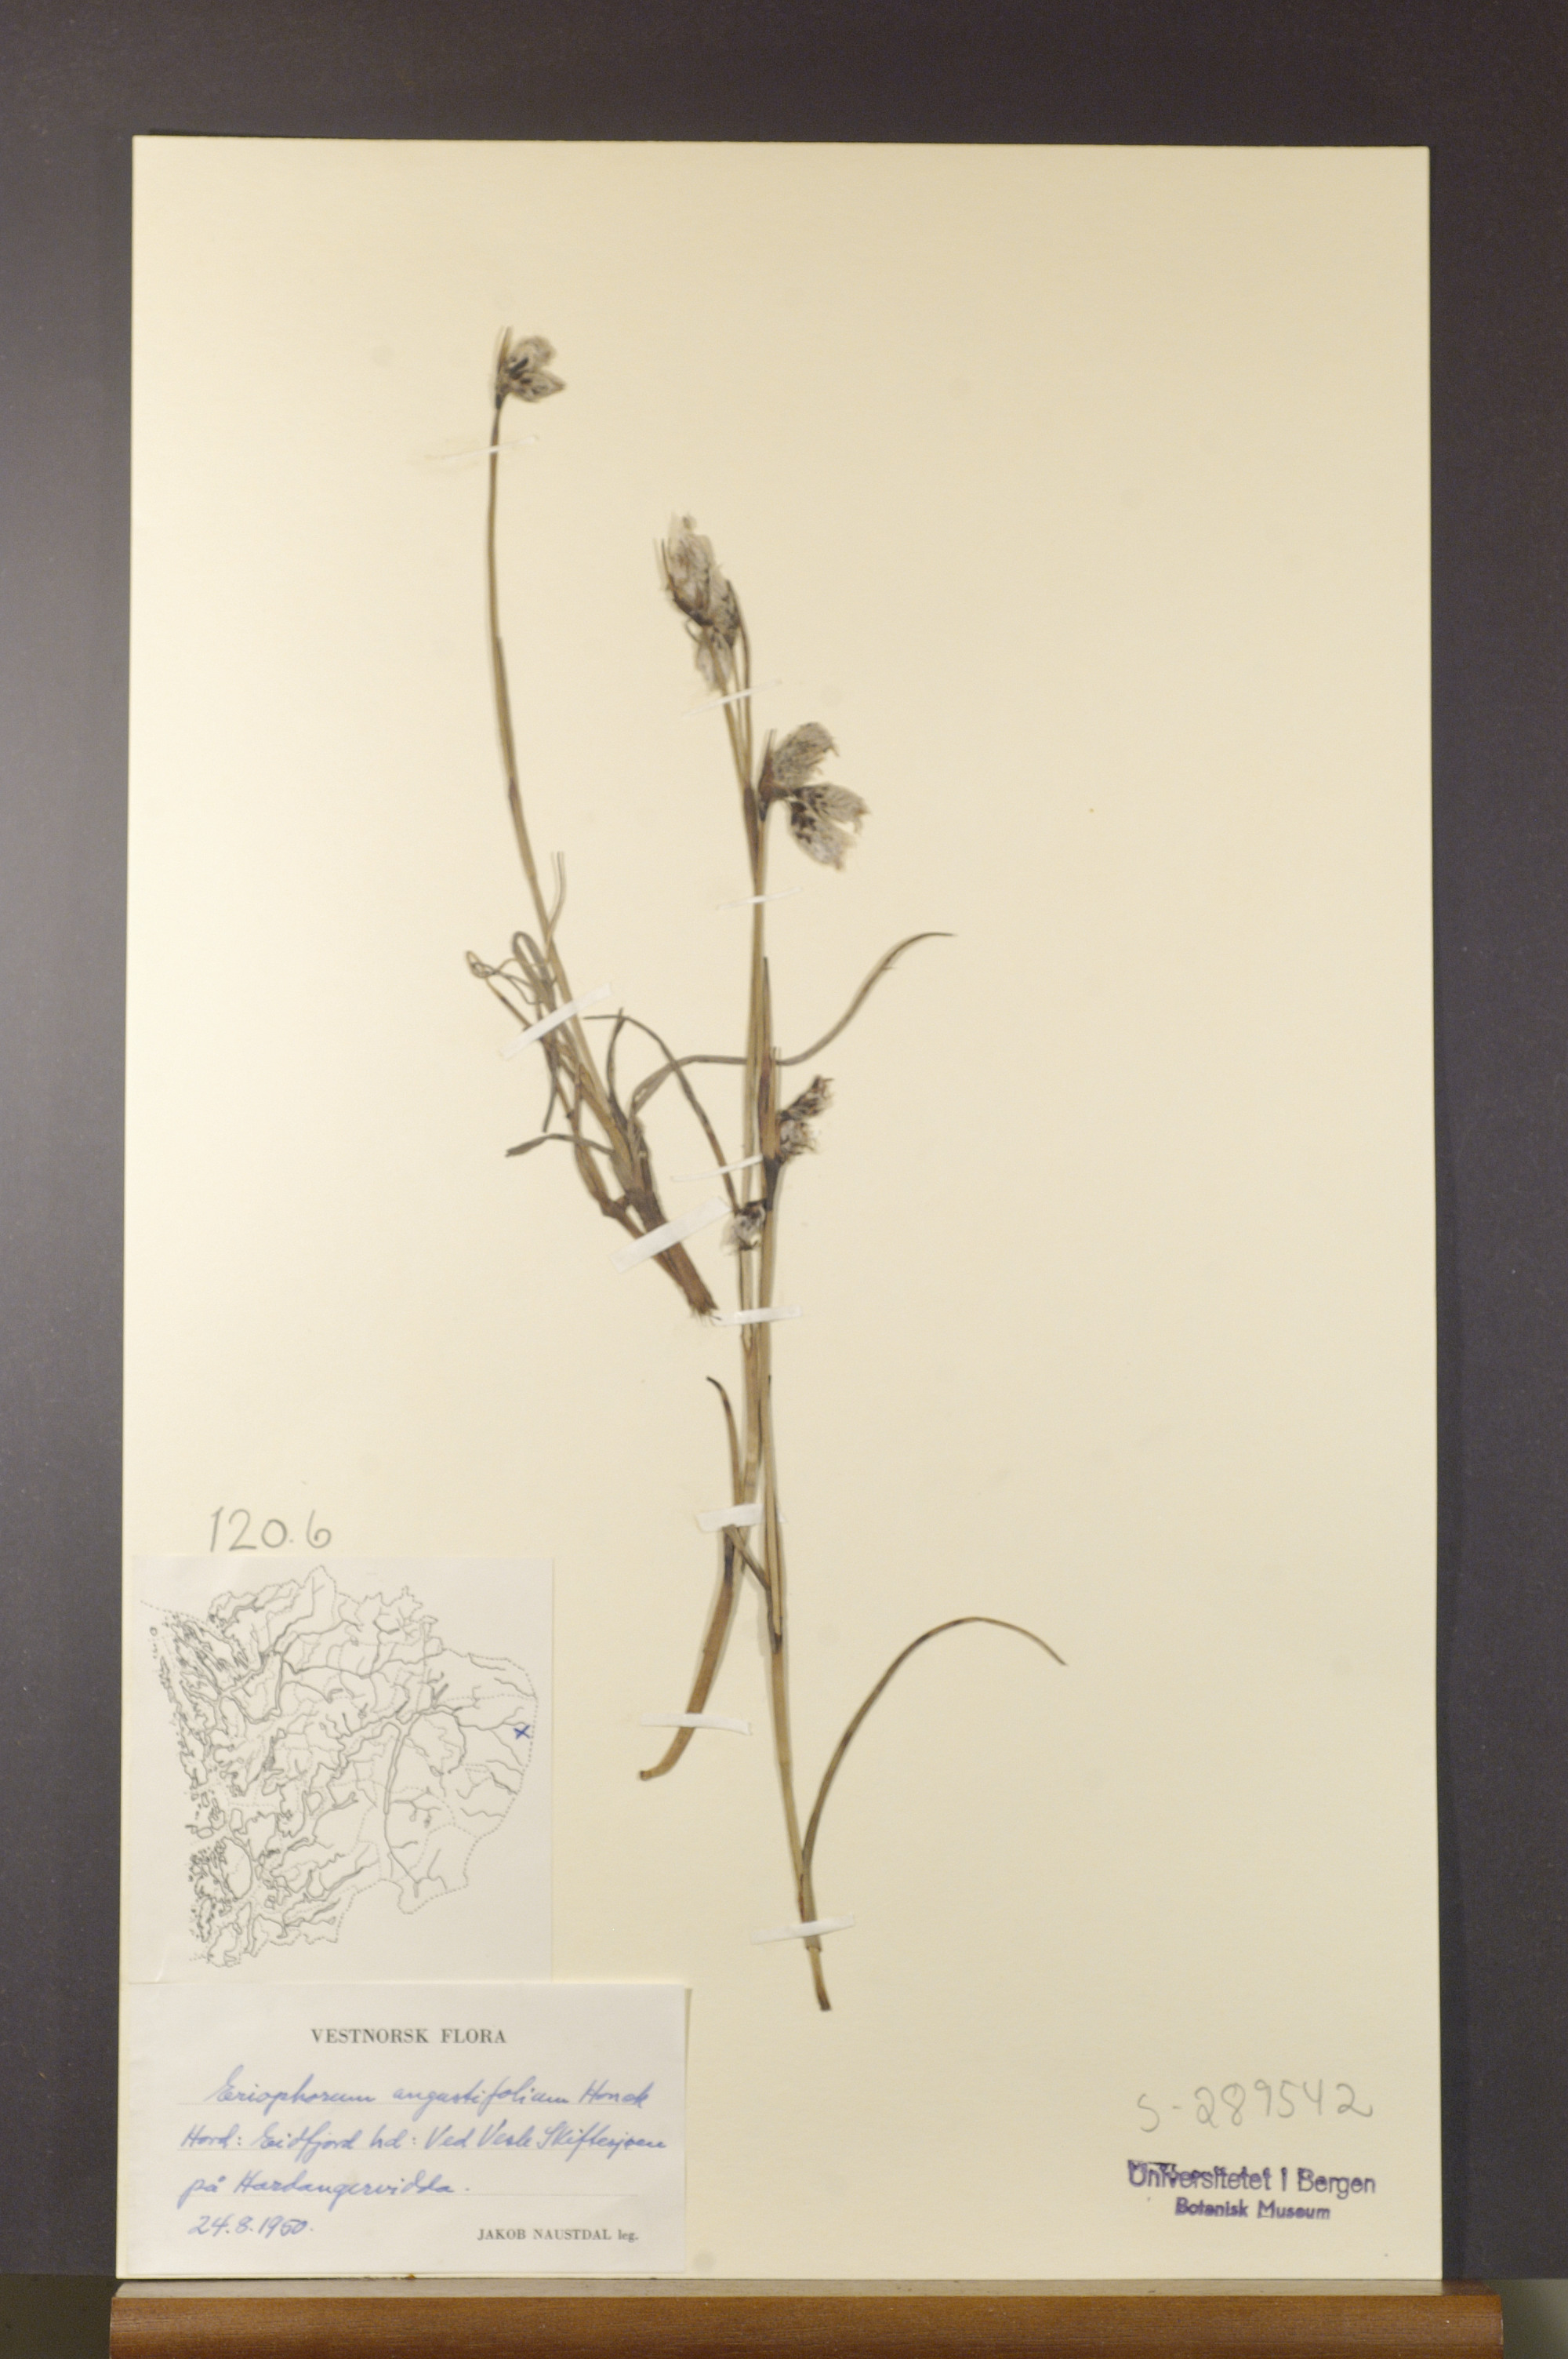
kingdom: Plantae
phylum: Tracheophyta
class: Liliopsida
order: Poales
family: Cyperaceae
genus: Eriophorum
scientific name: Eriophorum angustifolium
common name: Common cottongrass
